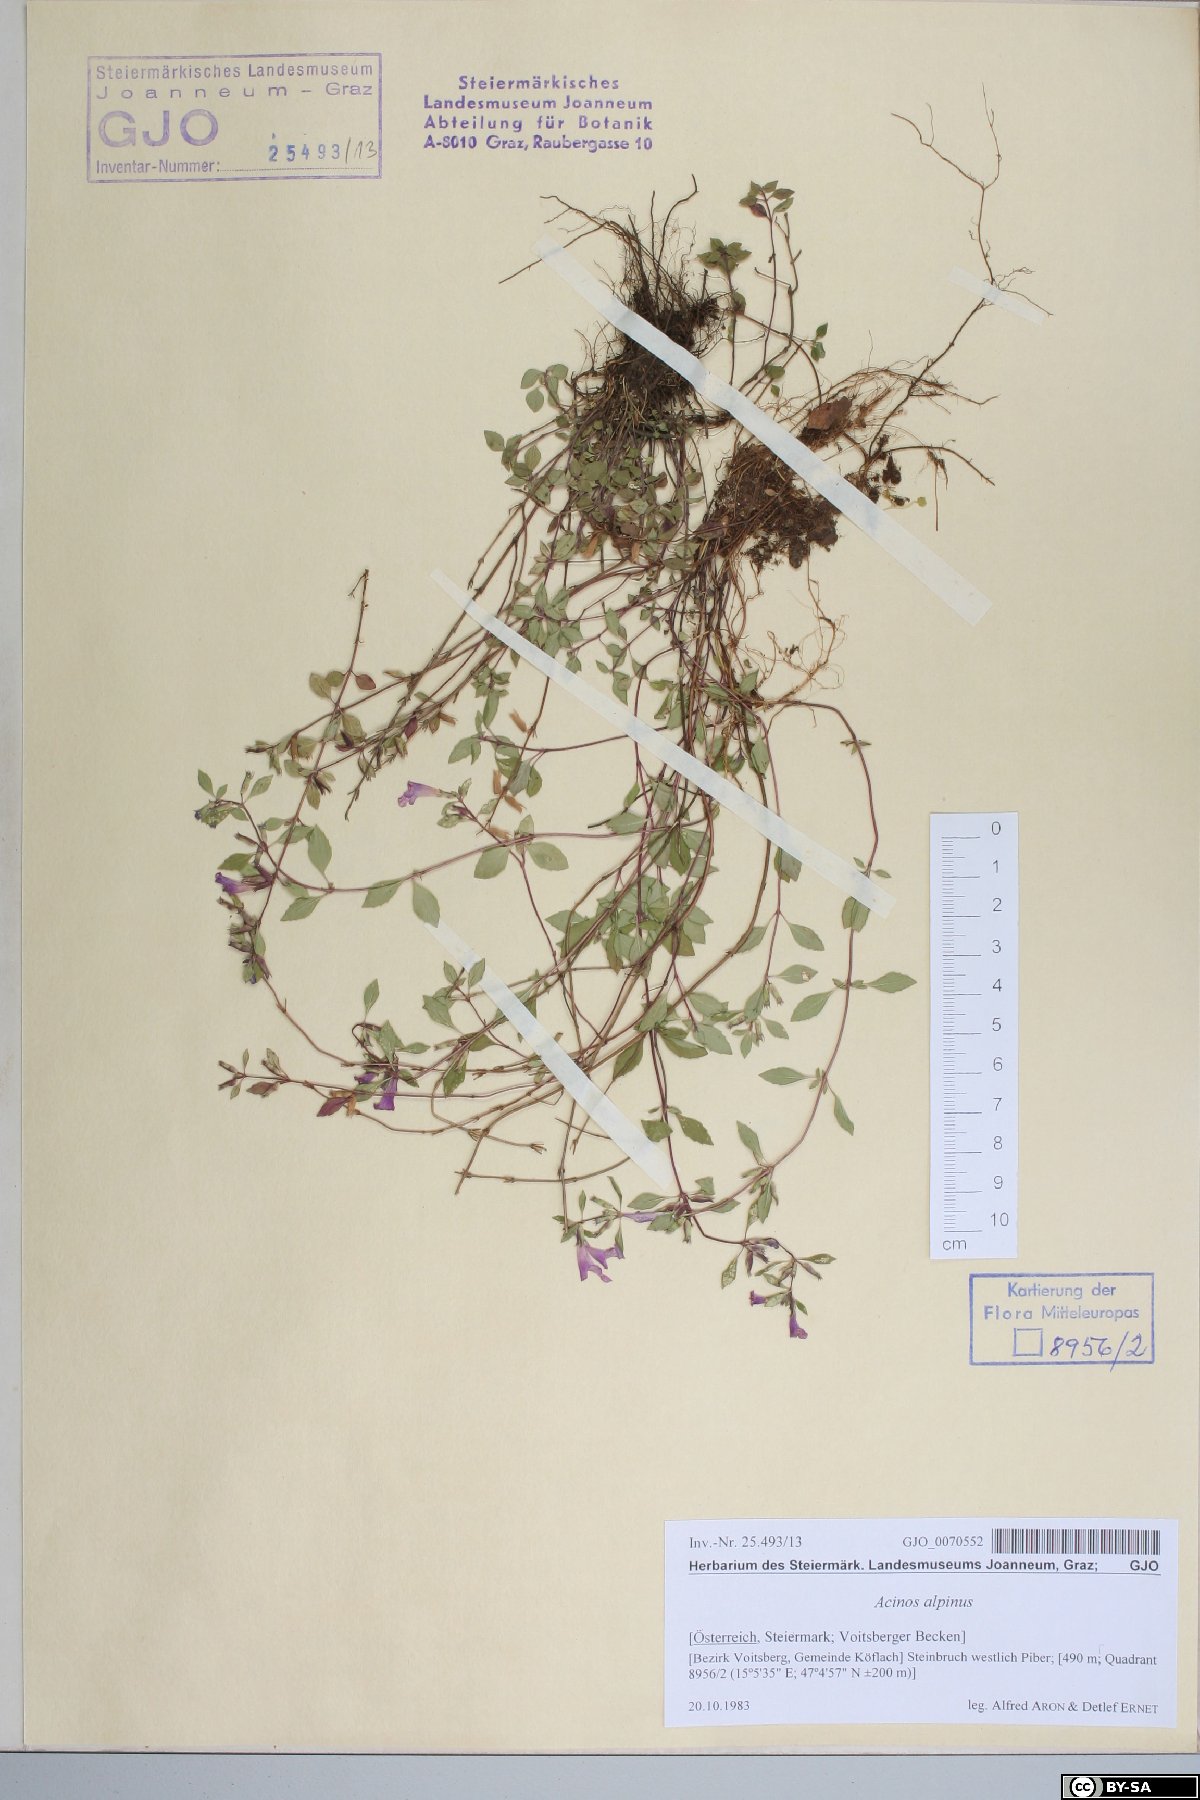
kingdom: Plantae
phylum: Tracheophyta
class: Magnoliopsida
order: Lamiales
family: Lamiaceae
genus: Clinopodium
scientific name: Clinopodium alpinum
